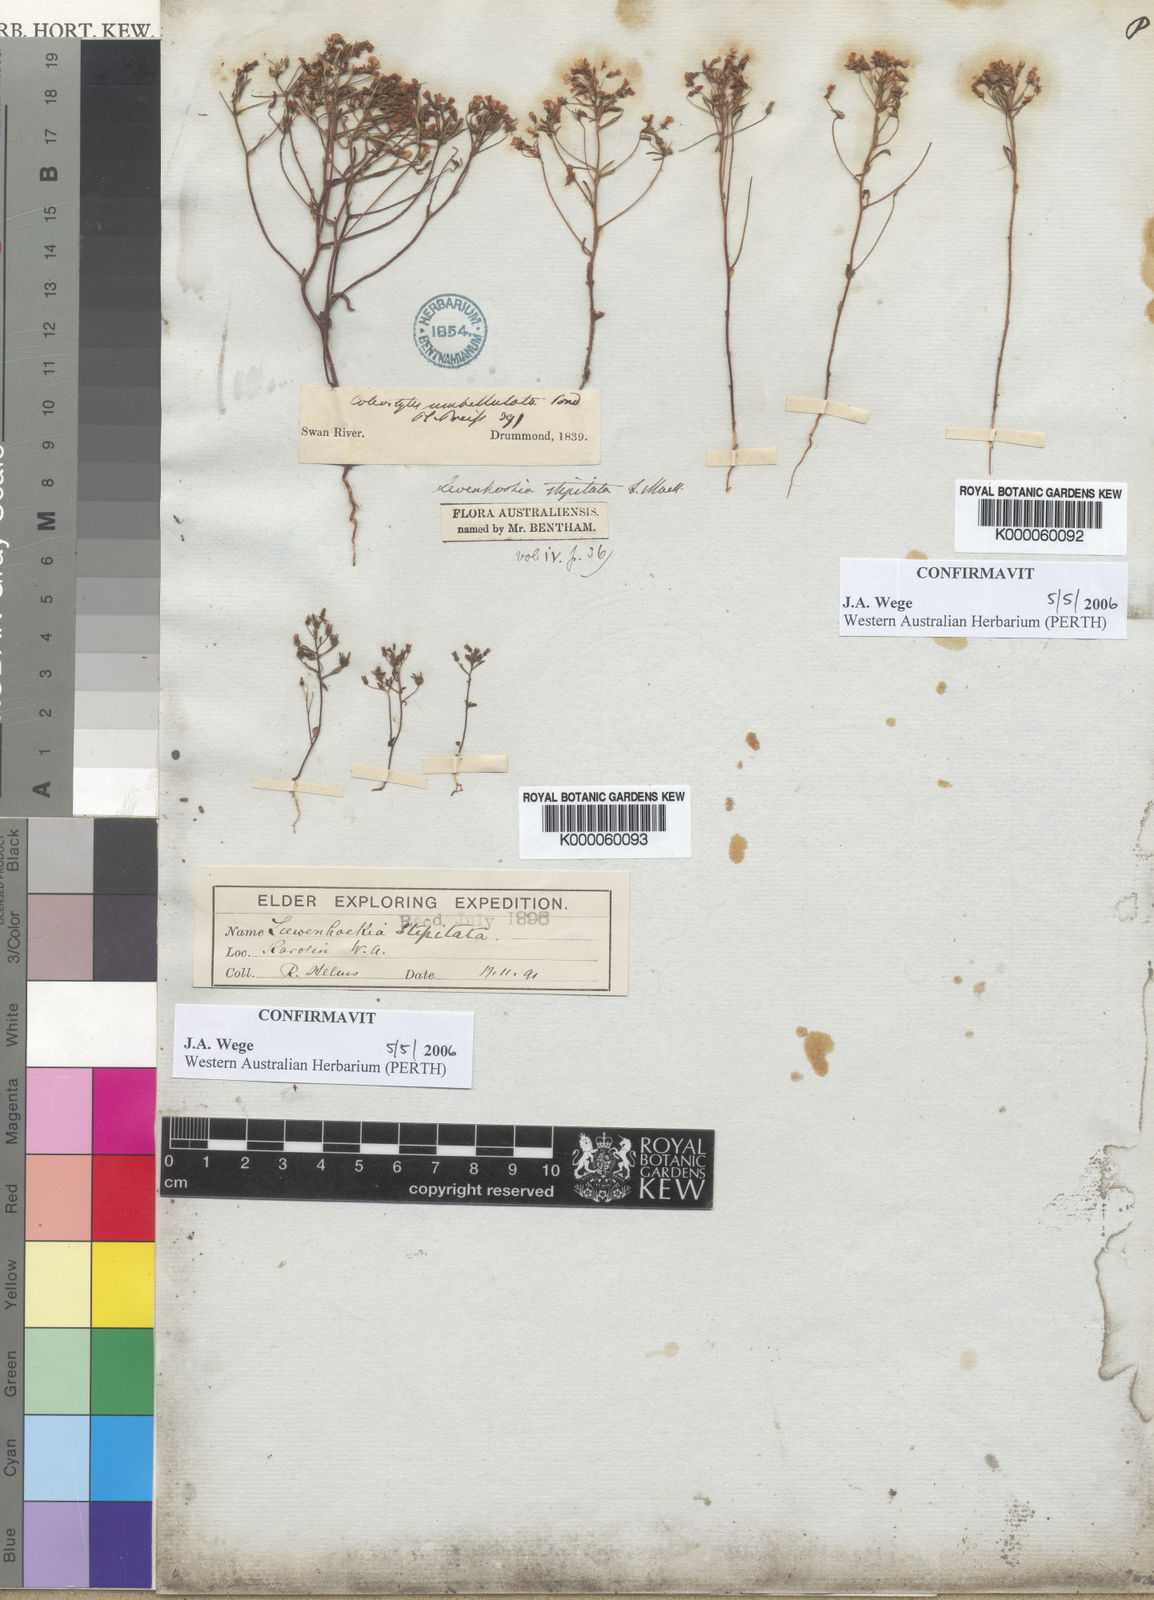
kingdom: Plantae
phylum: Tracheophyta
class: Magnoliopsida
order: Asterales
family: Stylidiaceae
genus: Levenhookia
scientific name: Levenhookia stipitata
